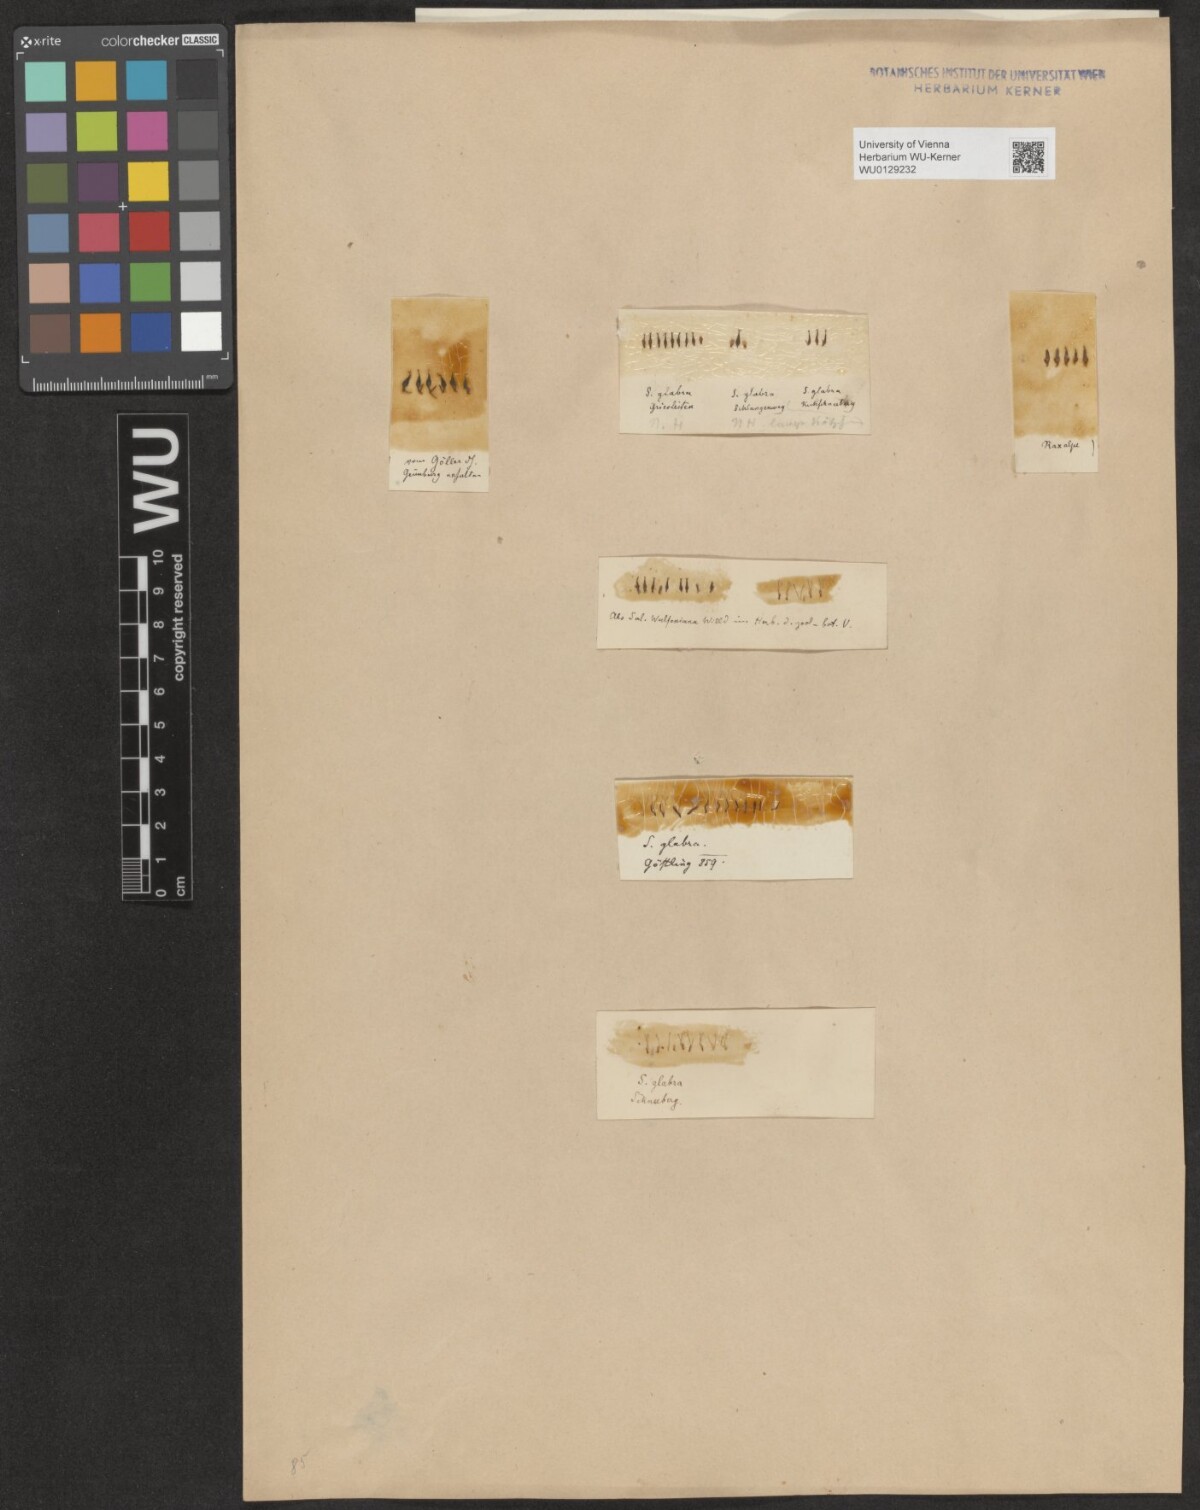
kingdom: Plantae
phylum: Tracheophyta
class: Magnoliopsida
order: Malpighiales
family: Salicaceae
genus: Salix
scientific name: Salix glabra
